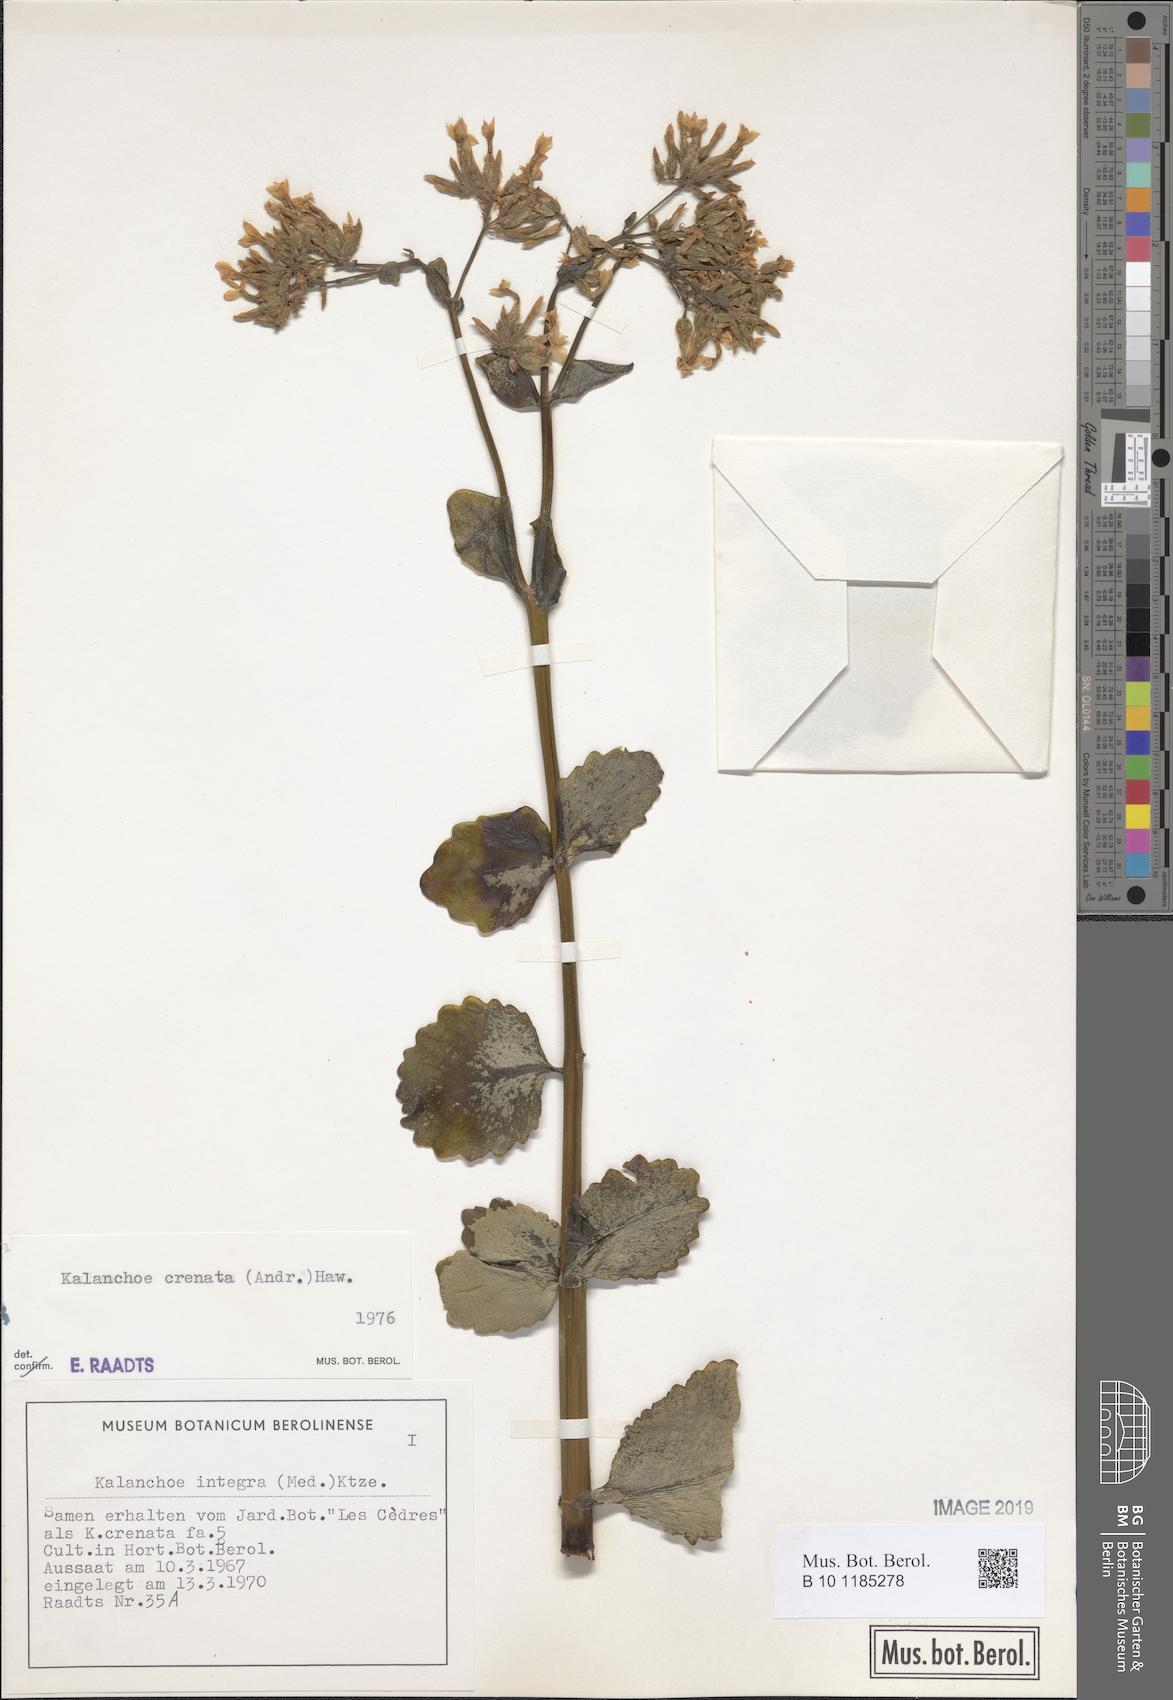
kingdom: Plantae
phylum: Tracheophyta
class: Magnoliopsida
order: Saxifragales
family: Crassulaceae
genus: Kalanchoe
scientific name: Kalanchoe crenata
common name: Neverdie
